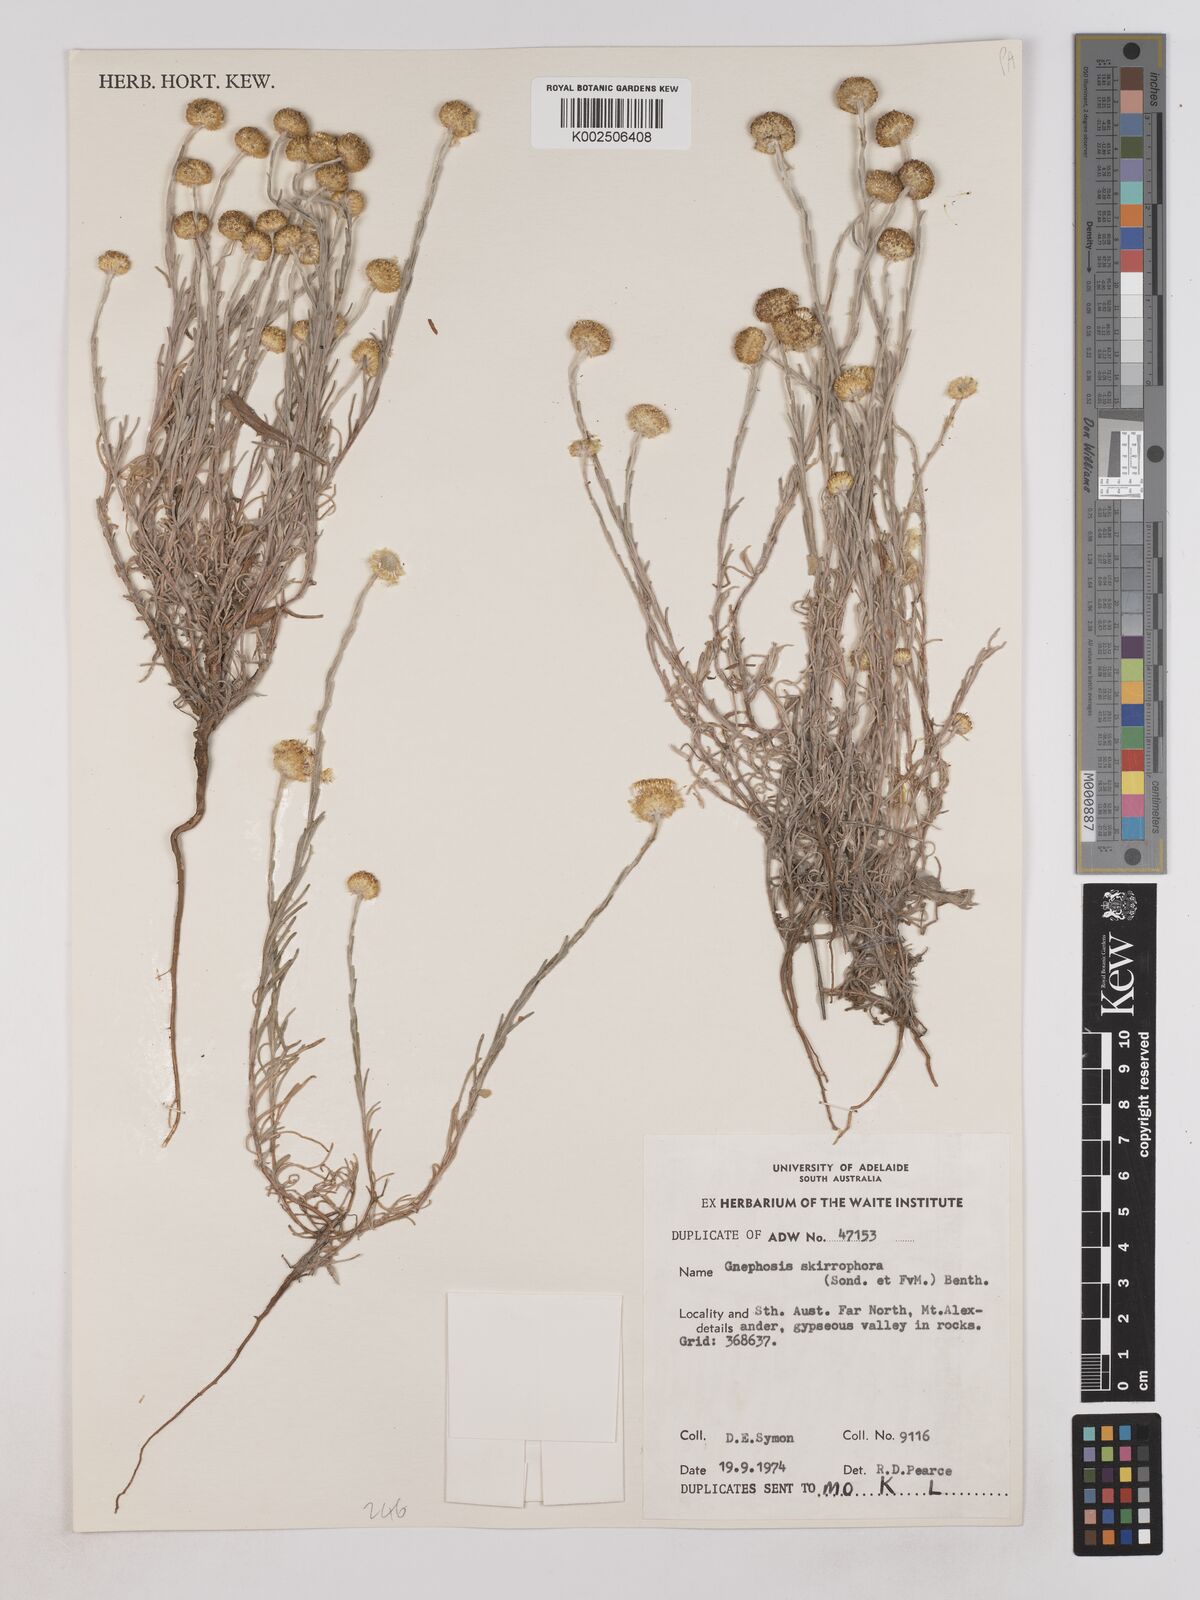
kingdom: Plantae
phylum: Tracheophyta
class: Magnoliopsida
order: Asterales
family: Asteraceae
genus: Trichanthodium
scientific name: Trichanthodium skirrophorum
